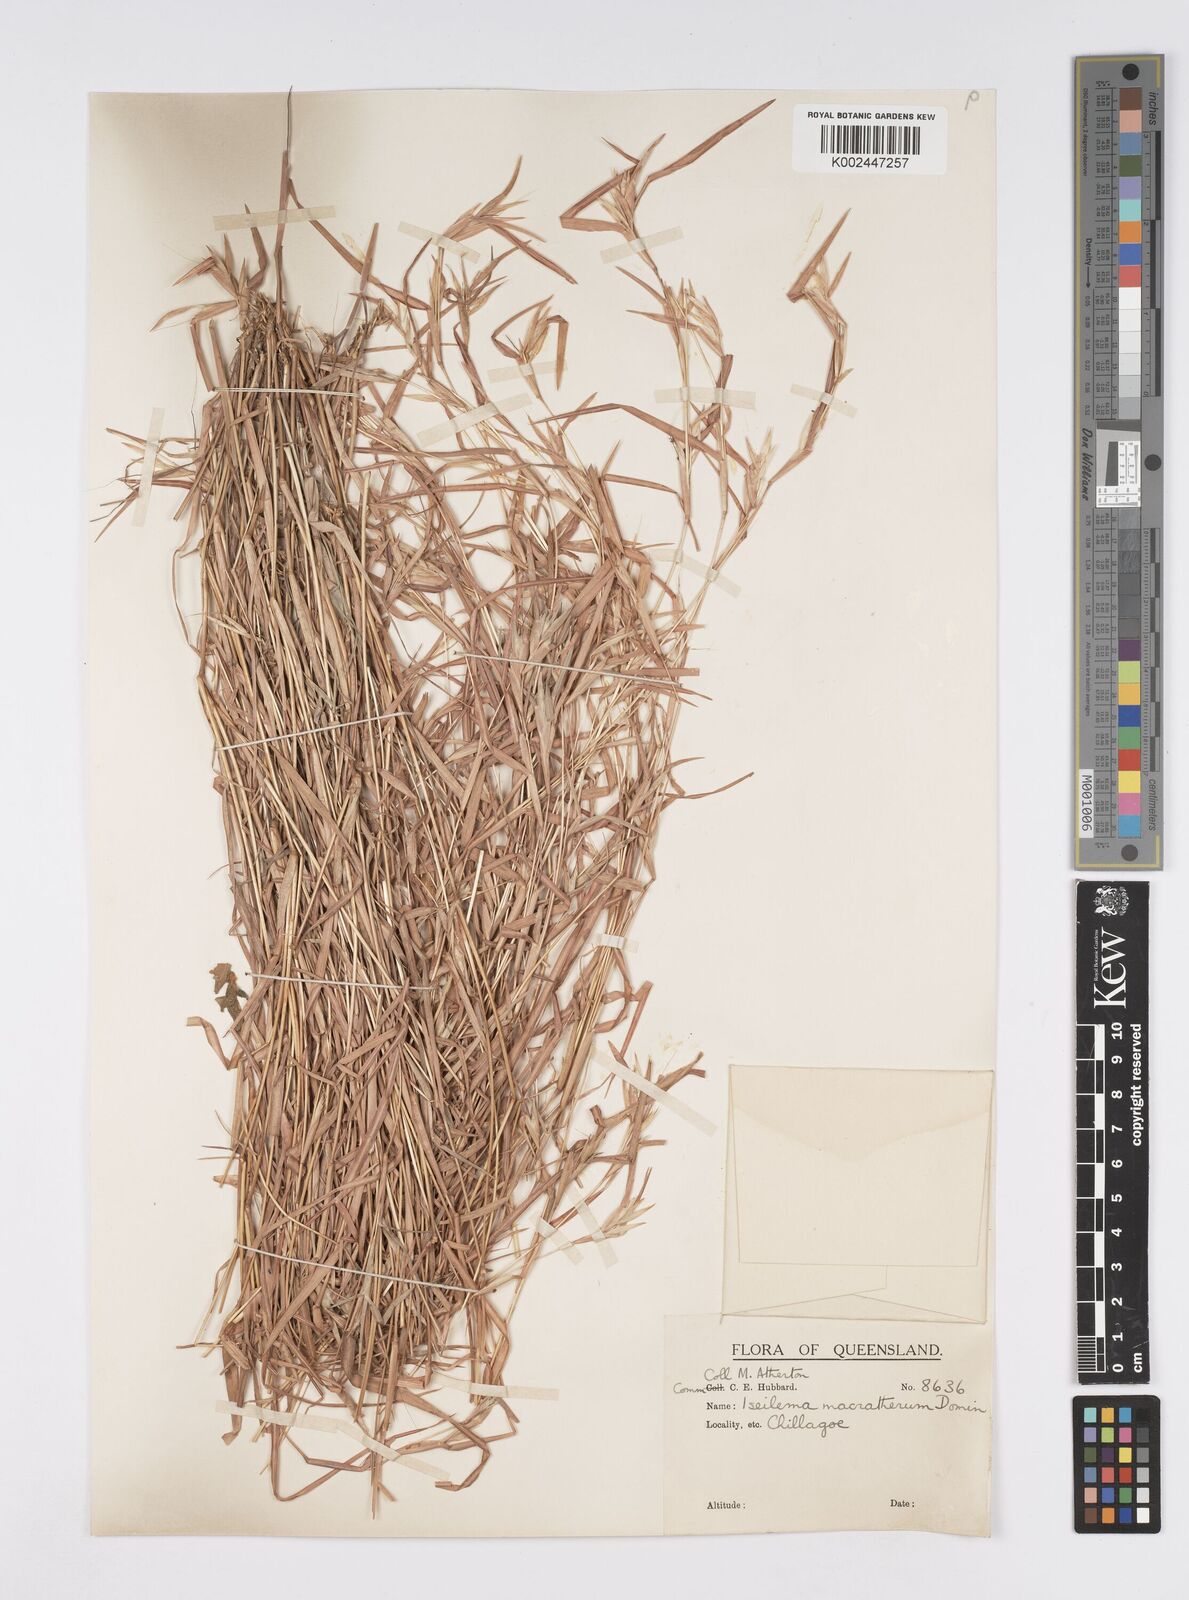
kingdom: Plantae
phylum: Tracheophyta
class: Liliopsida
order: Poales
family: Poaceae
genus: Iseilema
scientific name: Iseilema macratherum
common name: Bull flinders grass
